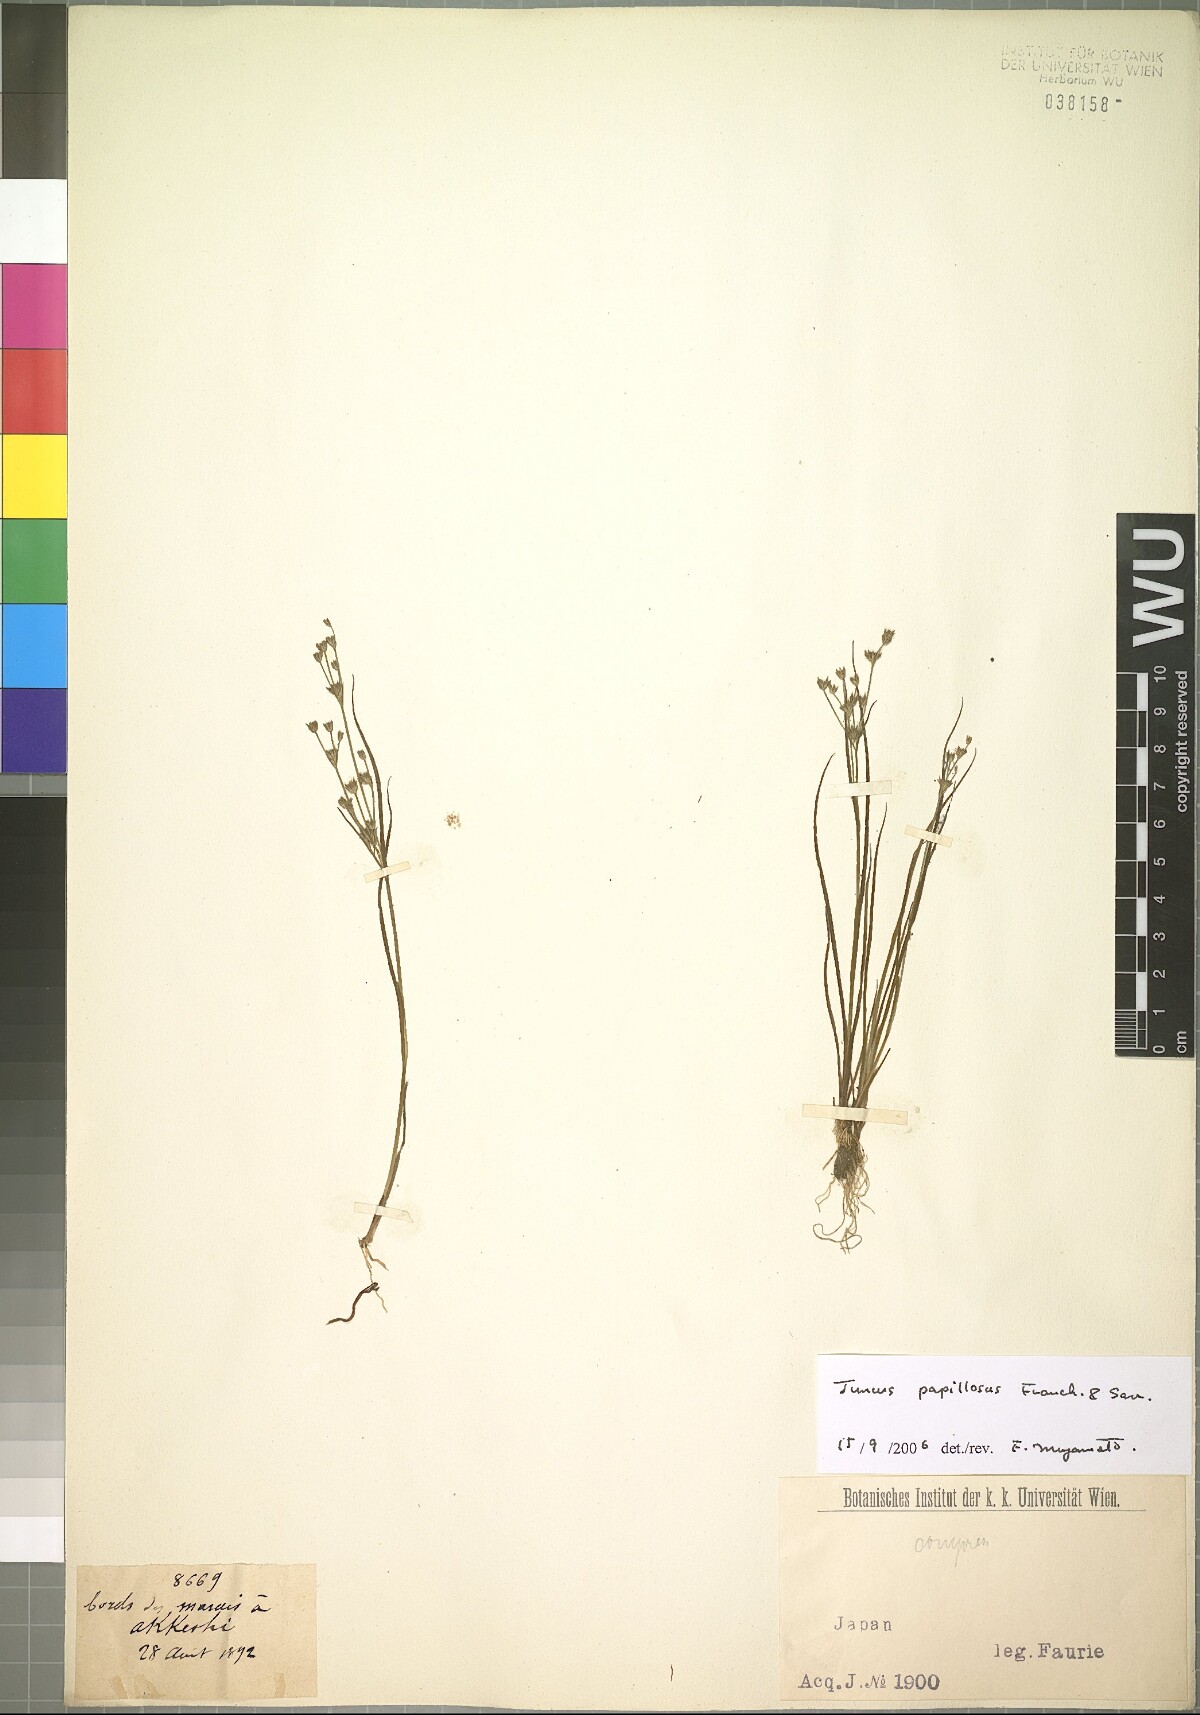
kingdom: Plantae
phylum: Tracheophyta
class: Liliopsida
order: Poales
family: Juncaceae
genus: Juncus
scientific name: Juncus papillosus
